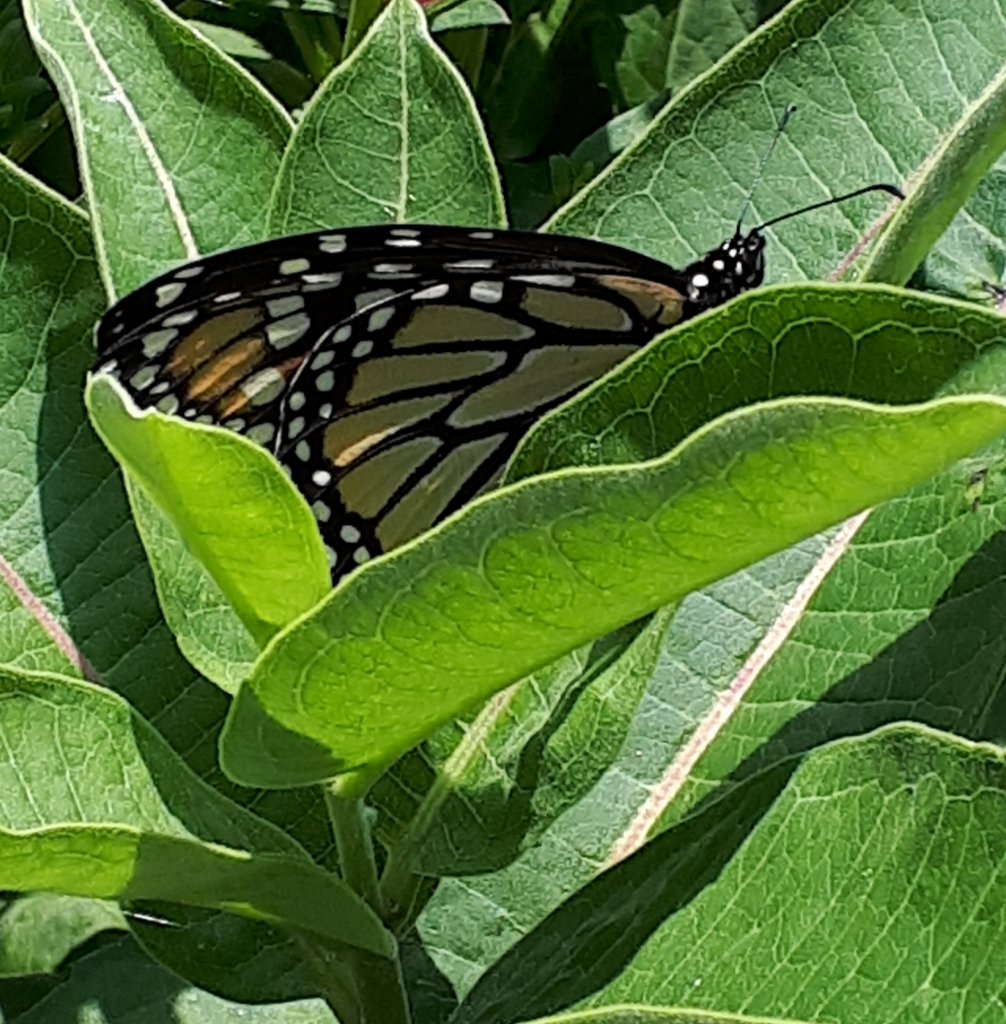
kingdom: Animalia
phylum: Arthropoda
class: Insecta
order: Lepidoptera
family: Nymphalidae
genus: Danaus
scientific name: Danaus plexippus
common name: Monarch
